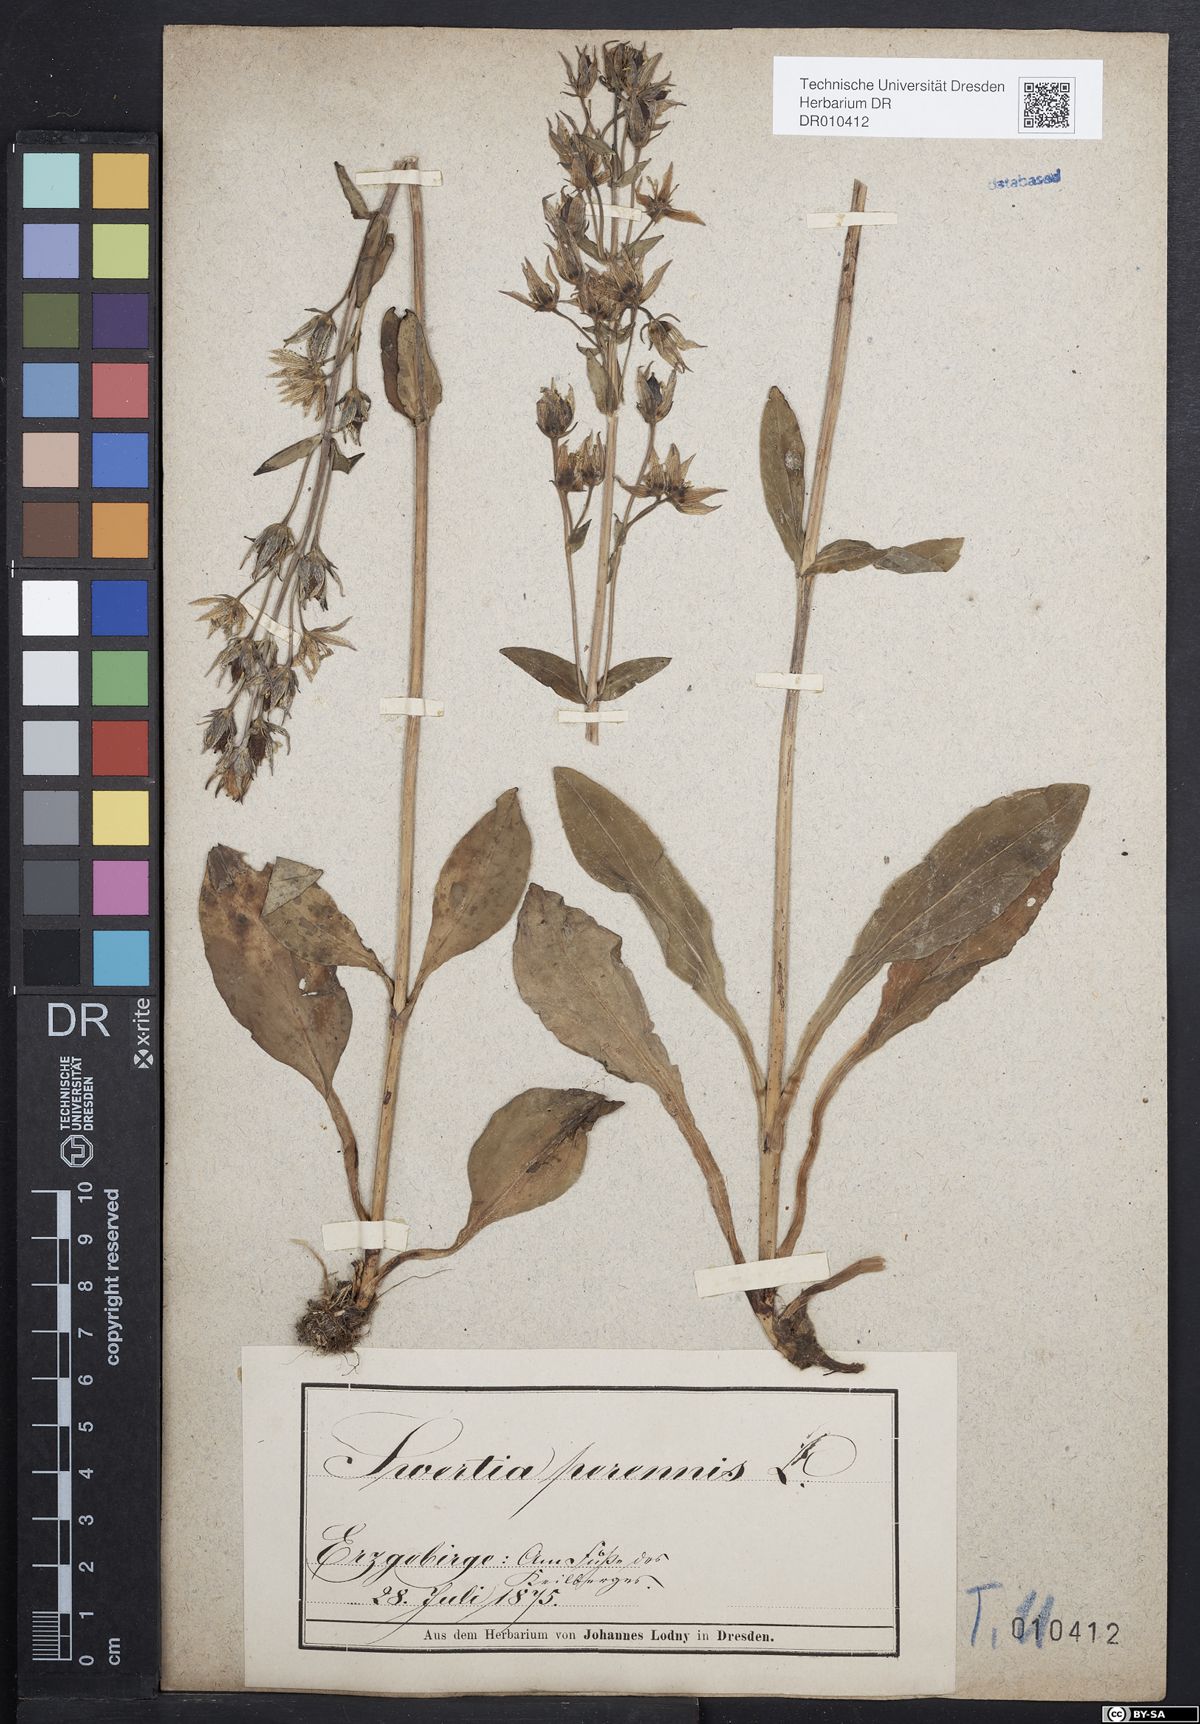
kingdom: Plantae
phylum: Tracheophyta
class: Magnoliopsida
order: Gentianales
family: Gentianaceae
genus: Swertia
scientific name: Swertia perennis
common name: Alpine bog swertia
